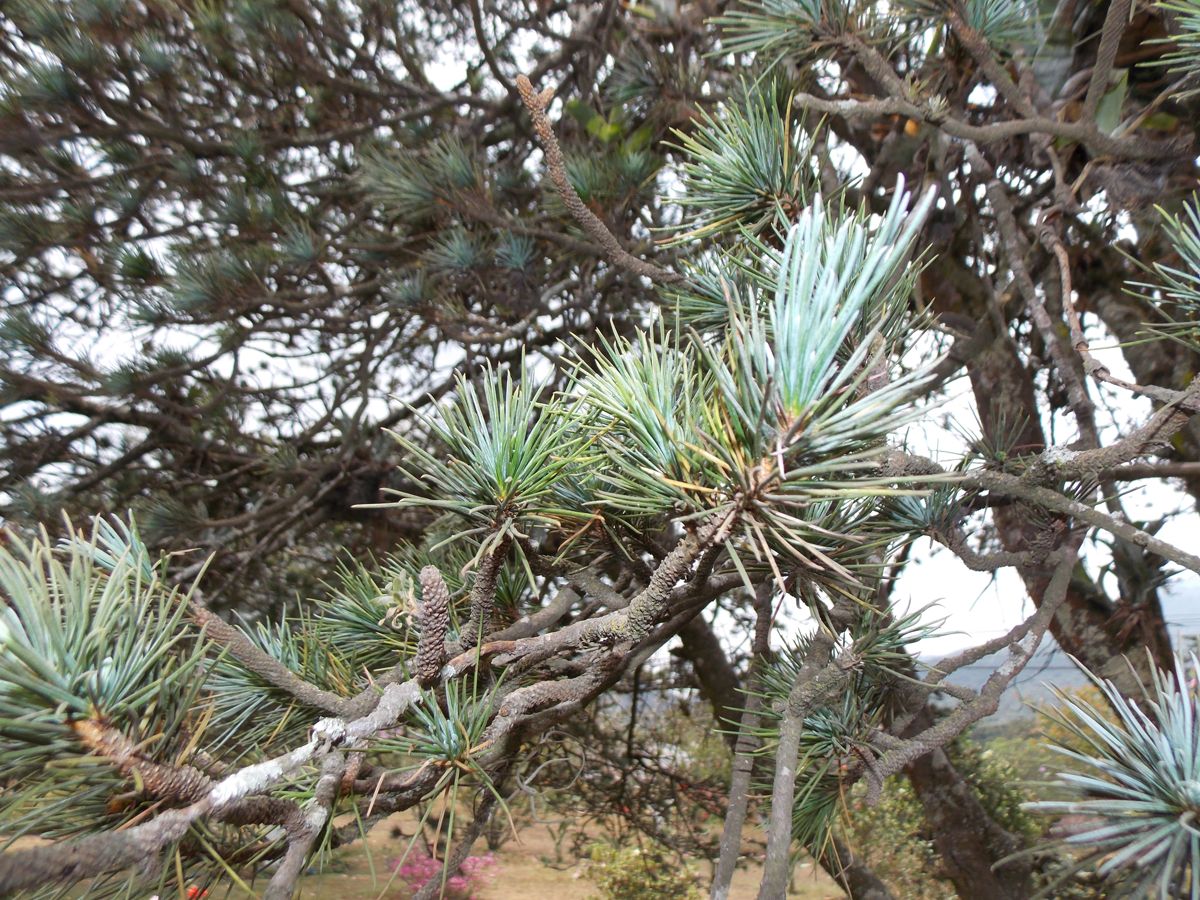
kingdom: Plantae
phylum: Tracheophyta
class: Pinopsida
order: Pinales
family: Pinaceae
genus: Cedrus
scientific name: Cedrus deodara
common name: Deodar
